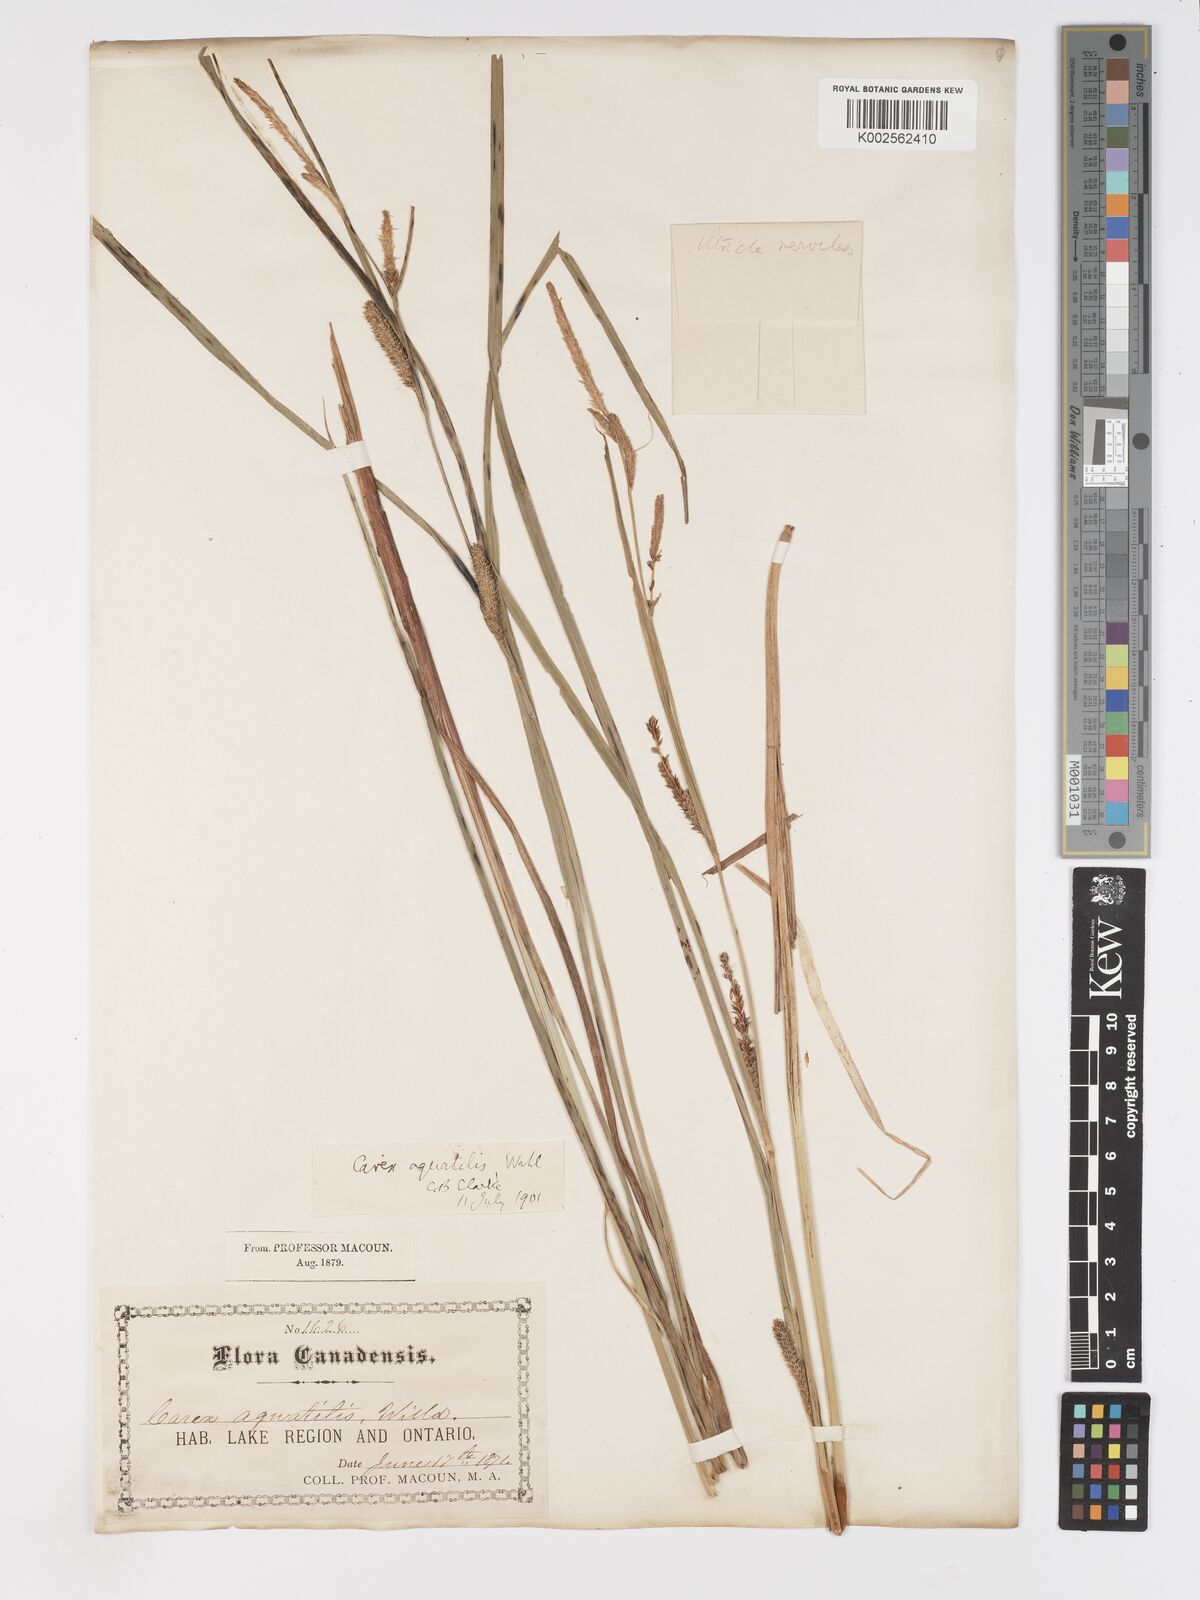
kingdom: Plantae
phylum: Tracheophyta
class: Liliopsida
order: Poales
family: Cyperaceae
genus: Carex
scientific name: Carex aquatilis
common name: Water sedge
